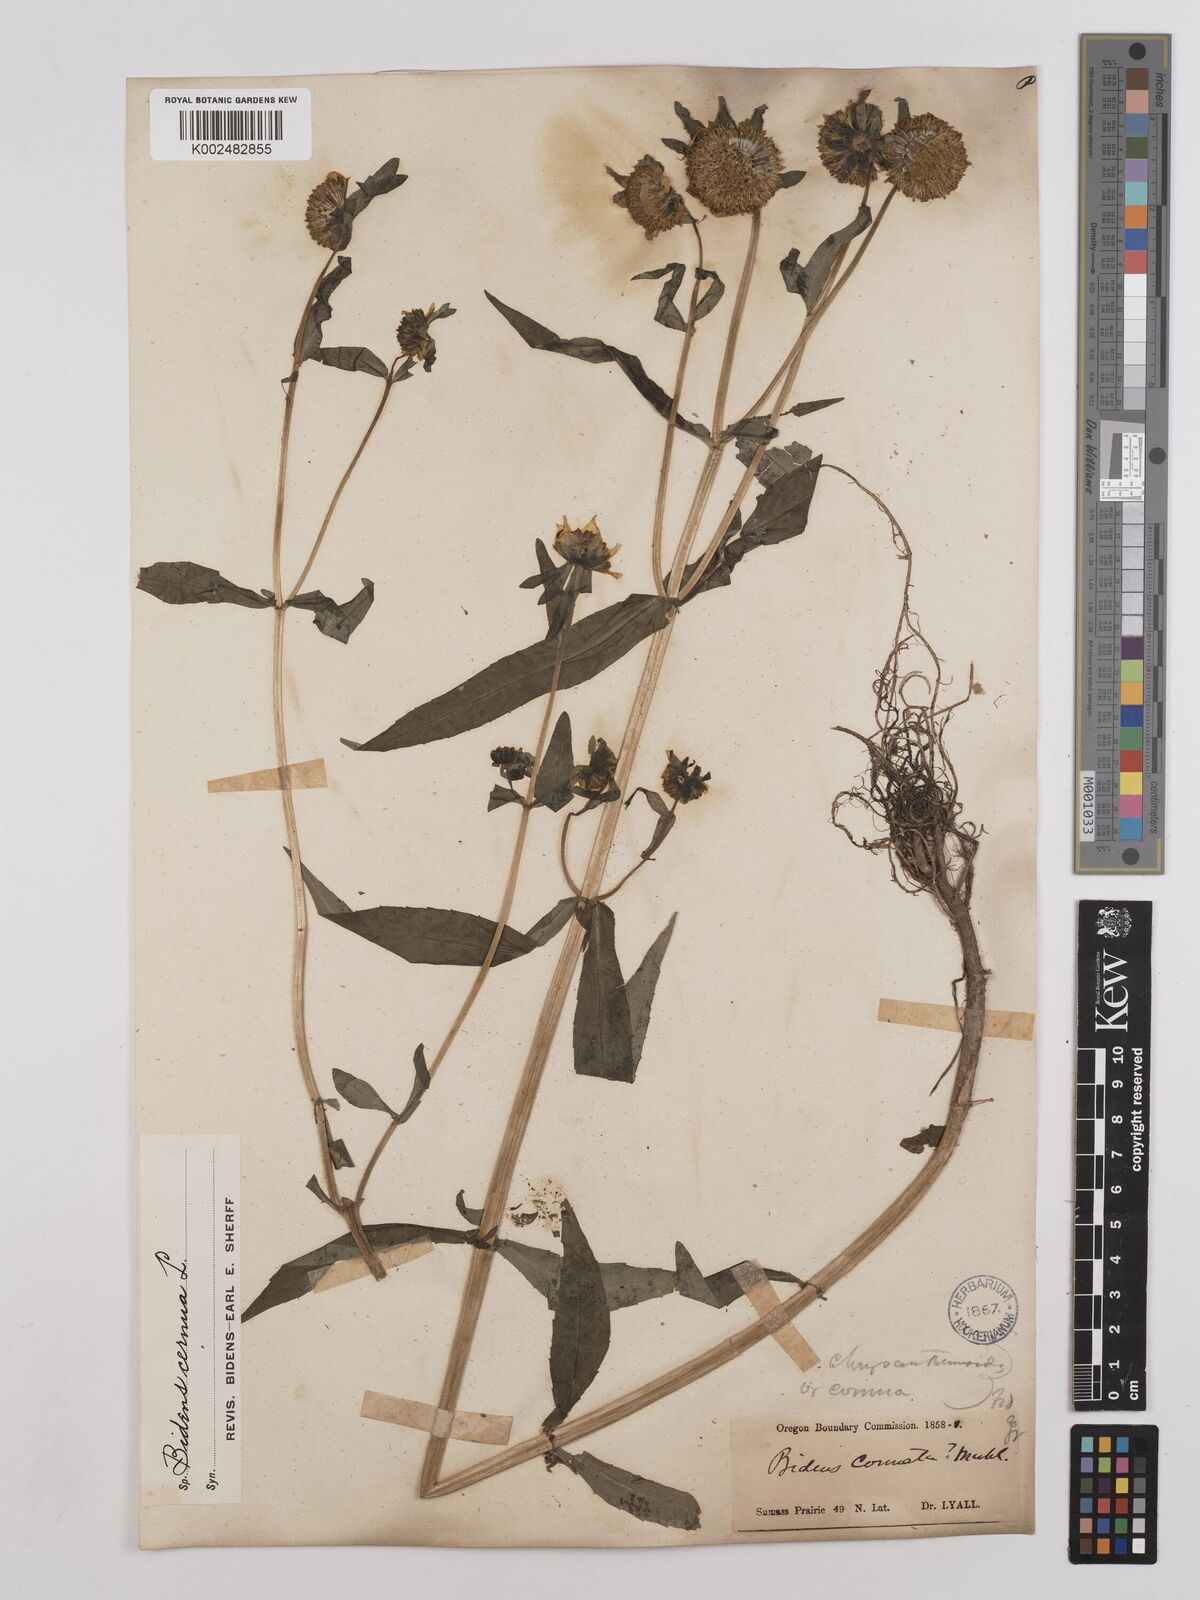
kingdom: Plantae
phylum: Tracheophyta
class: Magnoliopsida
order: Asterales
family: Asteraceae
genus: Bidens
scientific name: Bidens
